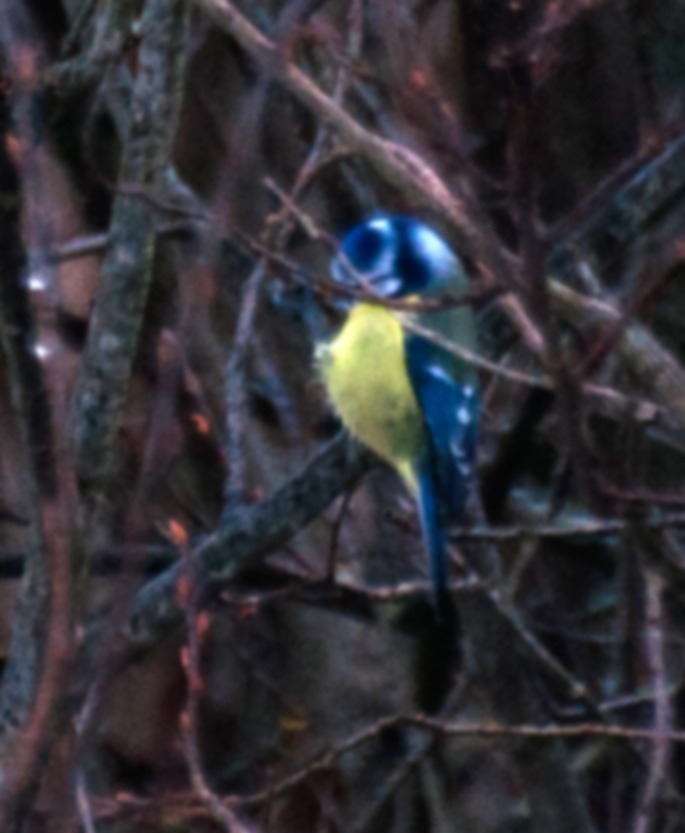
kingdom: Animalia
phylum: Chordata
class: Aves
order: Passeriformes
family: Paridae
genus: Cyanistes
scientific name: Cyanistes caeruleus
